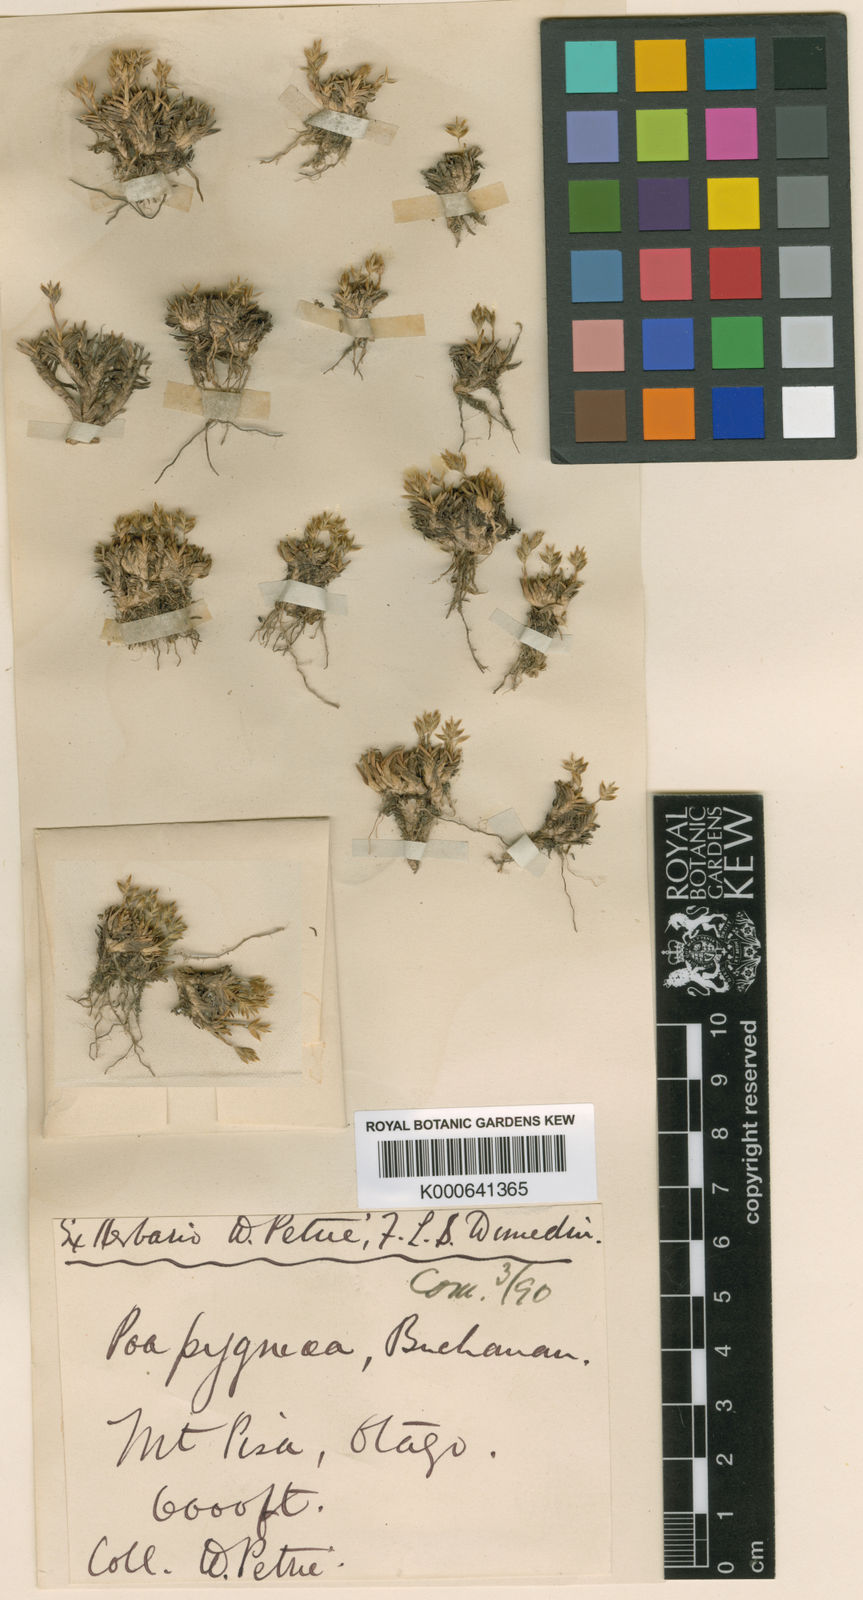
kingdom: Plantae
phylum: Tracheophyta
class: Liliopsida
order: Poales
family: Poaceae
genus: Poa
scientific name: Poa pygmaea
